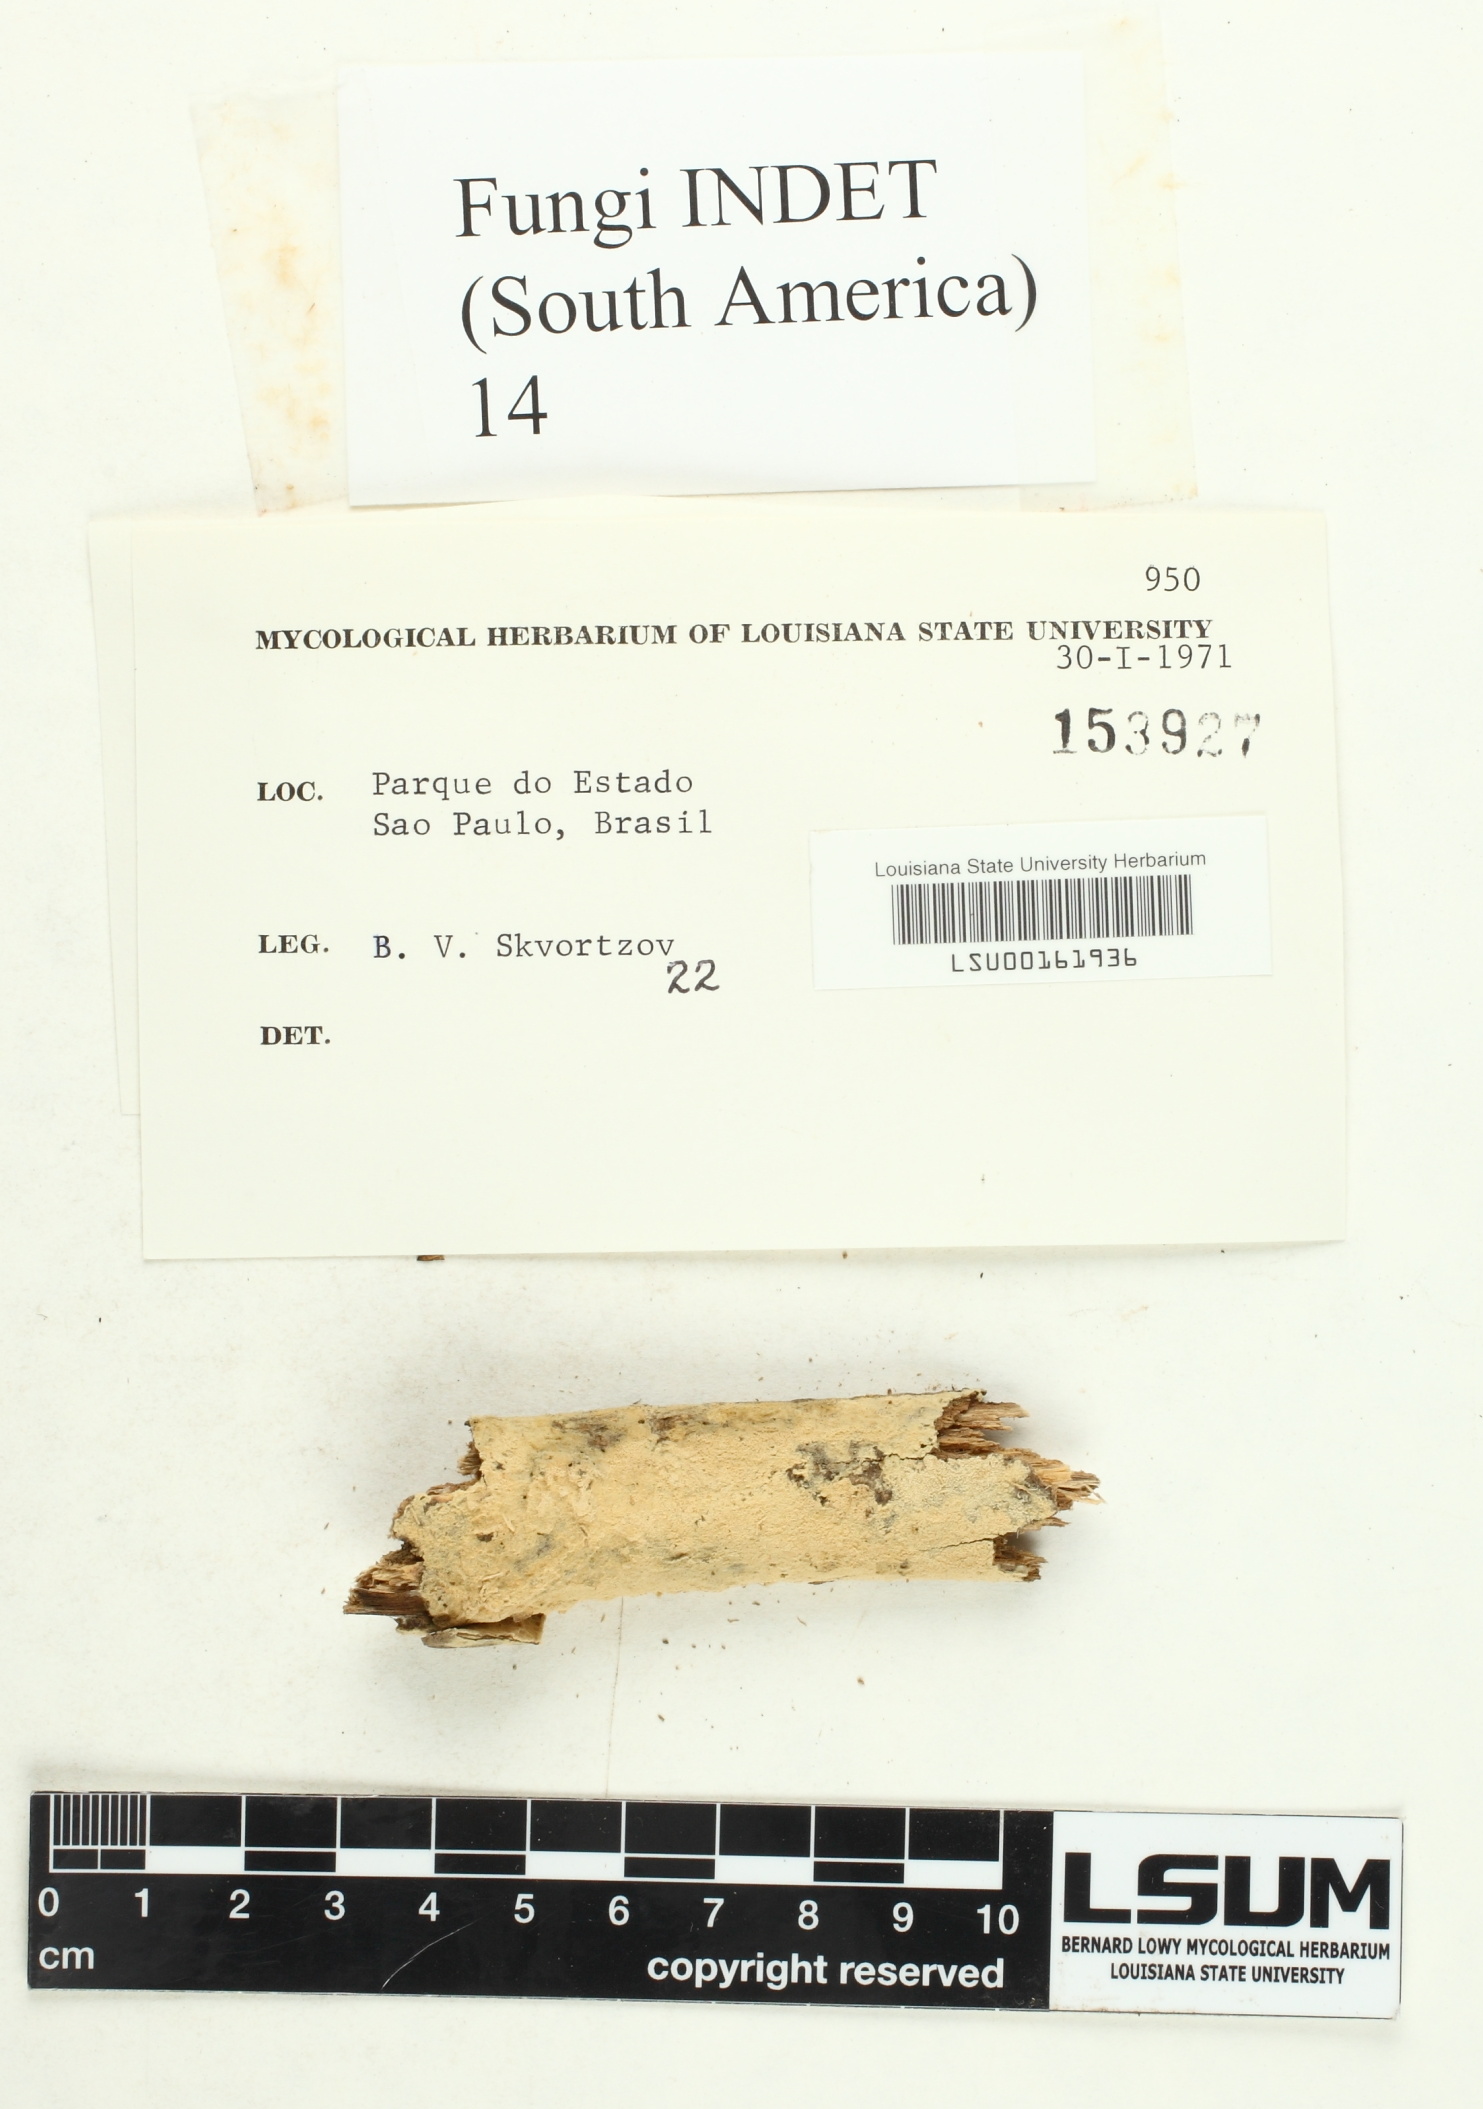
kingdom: Fungi
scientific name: Fungi
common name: Fungi
